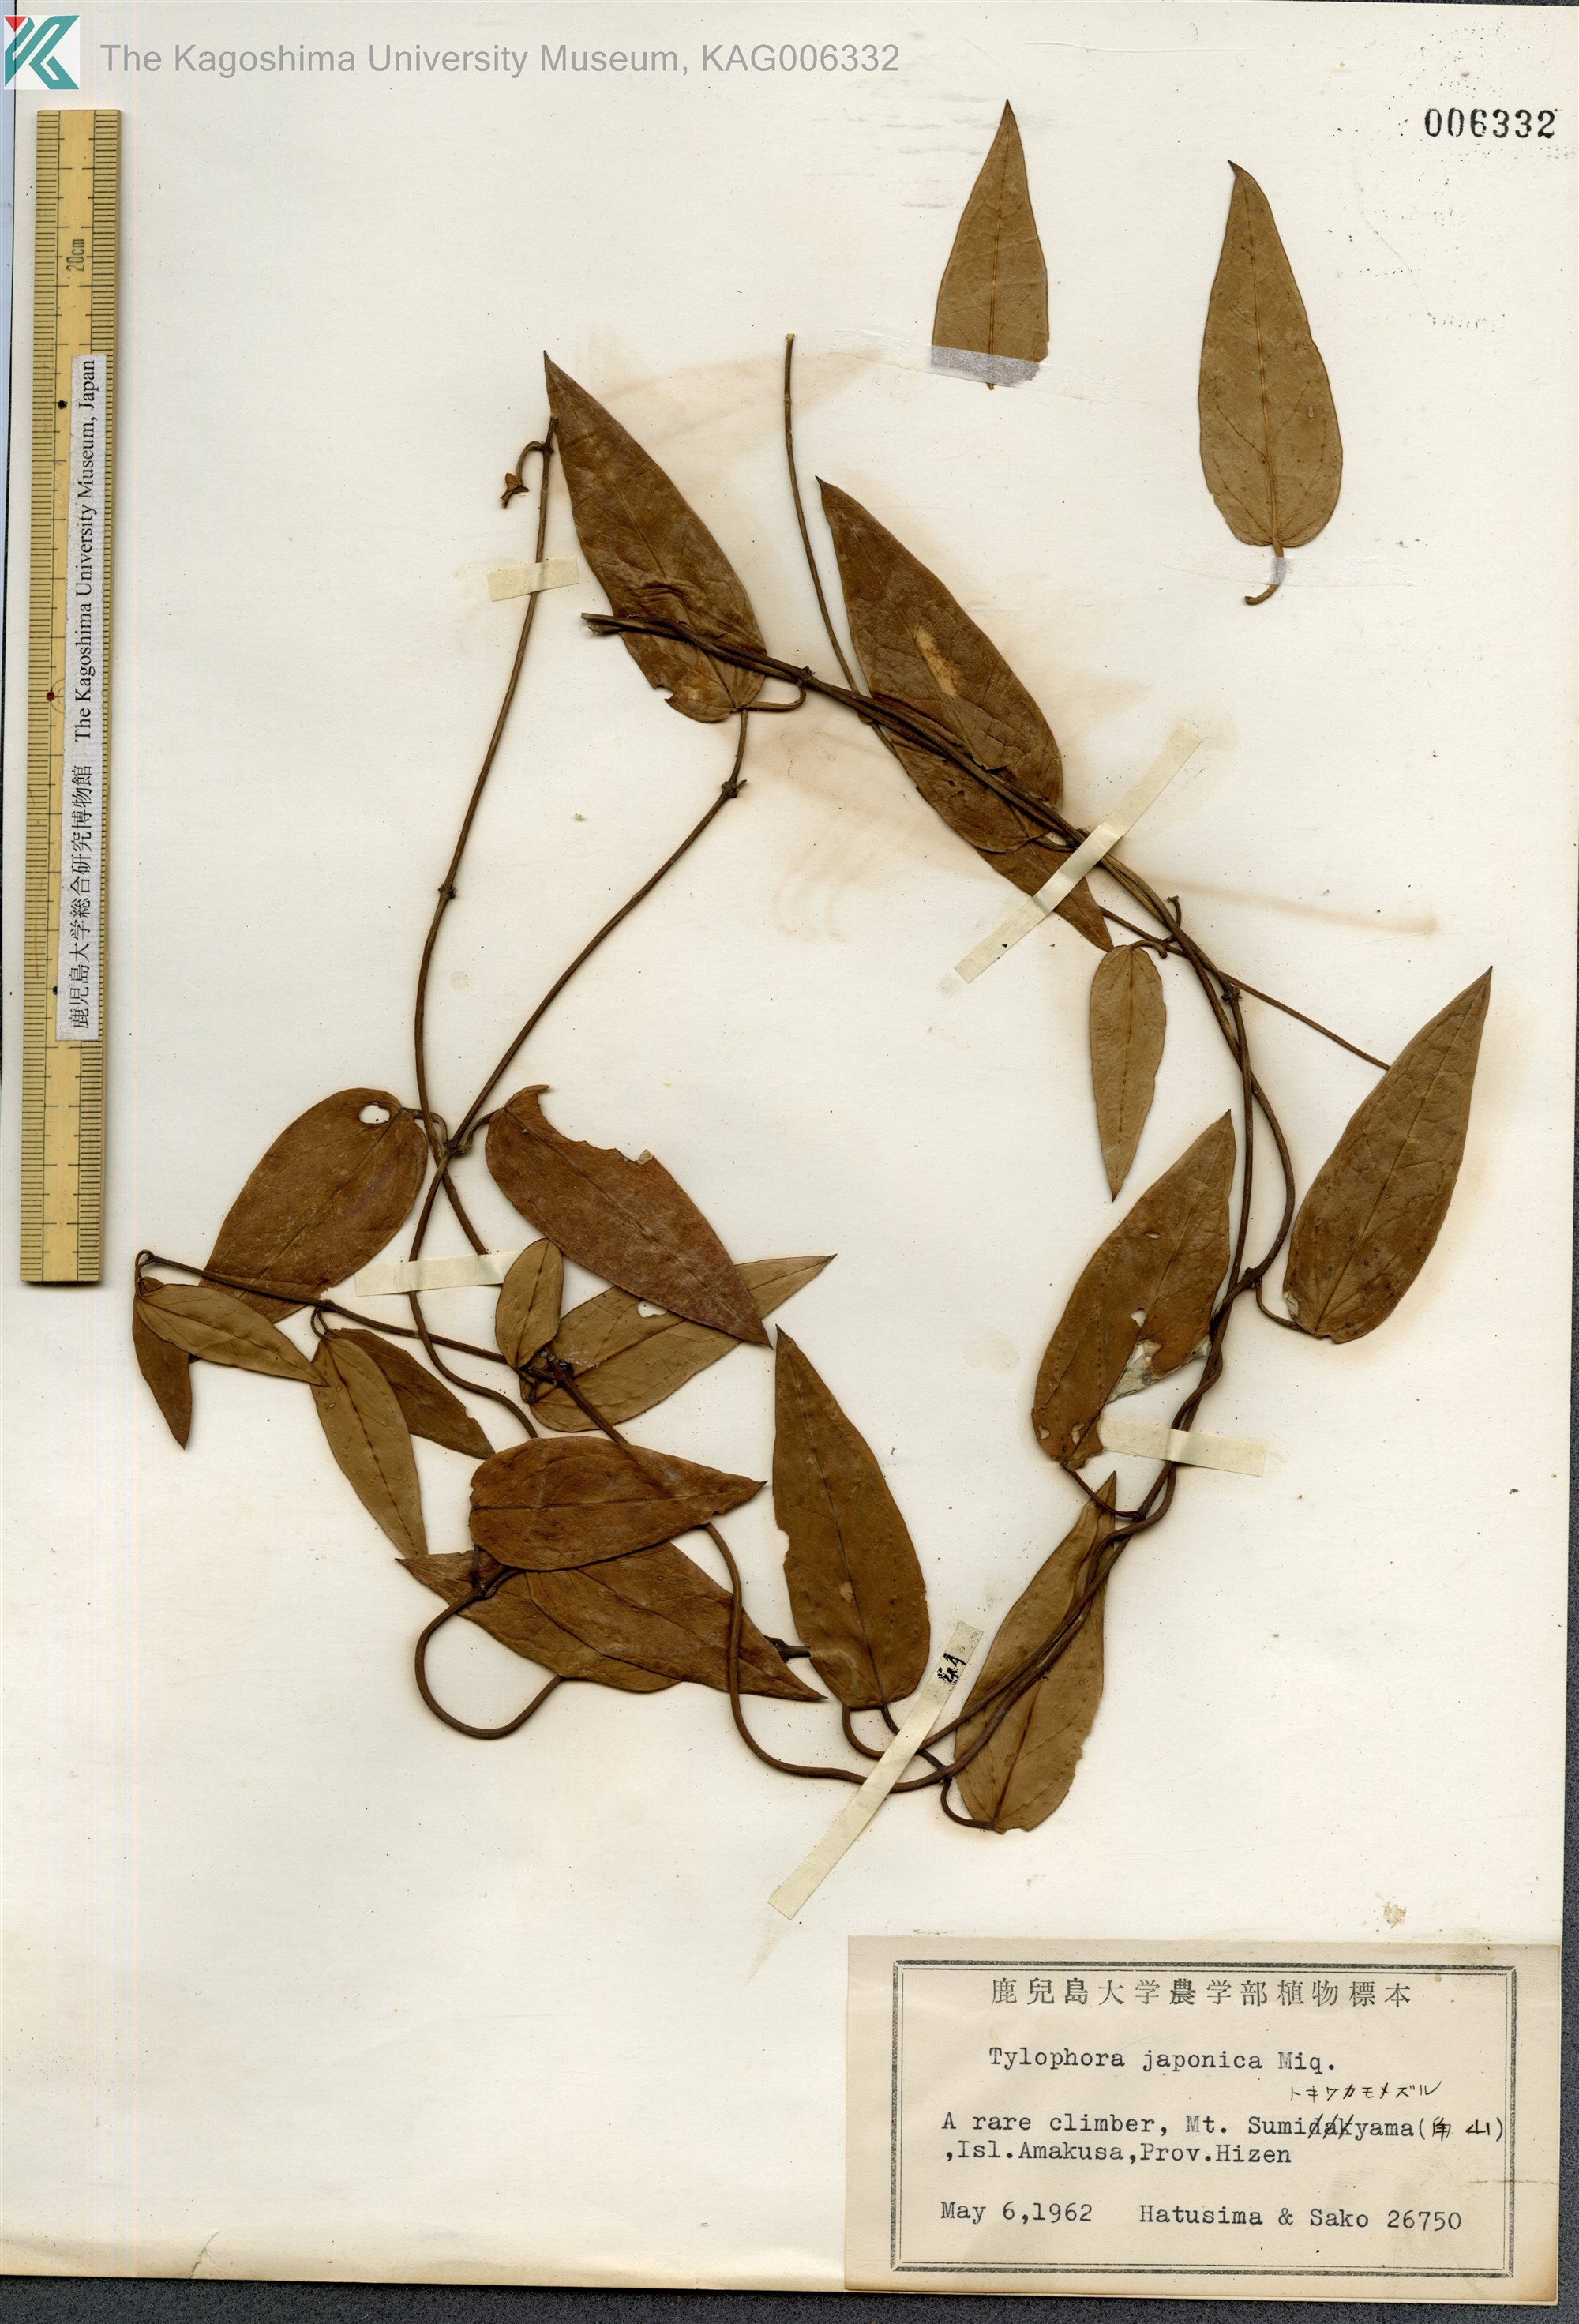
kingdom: Plantae
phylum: Tracheophyta
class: Magnoliopsida
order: Gentianales
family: Apocynaceae
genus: Vincetoxicum
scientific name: Vincetoxicum sieboldii
